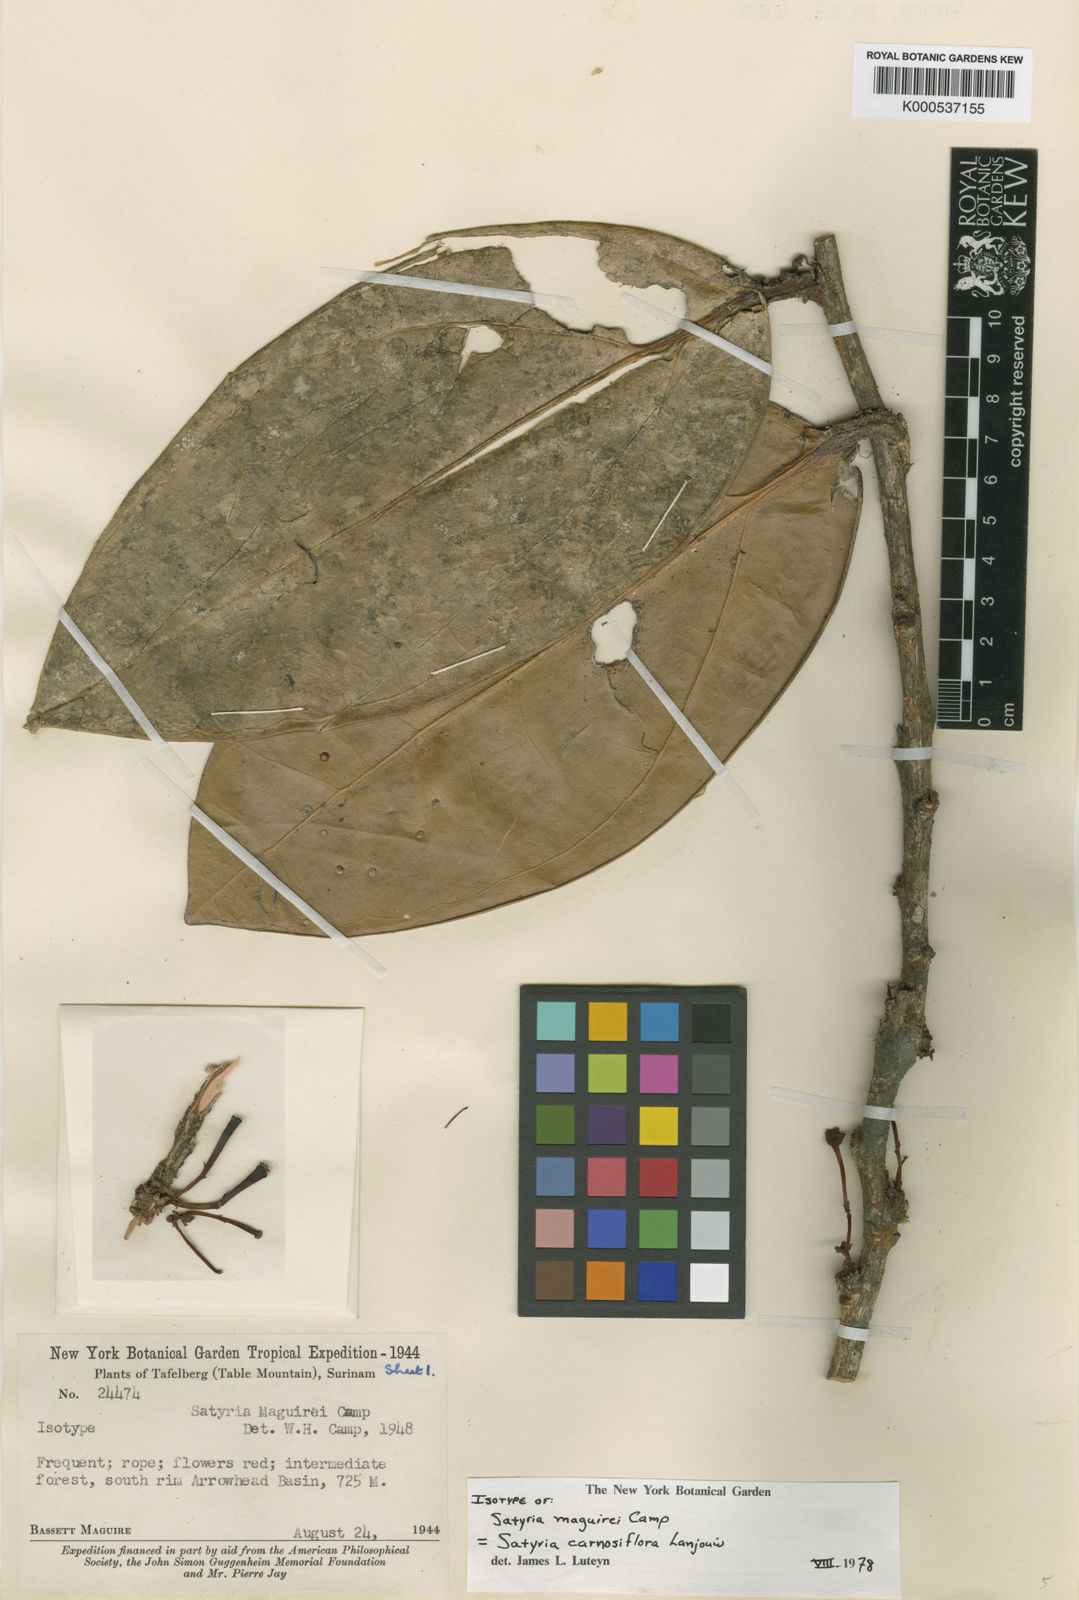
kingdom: Plantae
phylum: Tracheophyta
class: Magnoliopsida
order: Ericales
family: Ericaceae
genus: Satyria
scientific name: Satyria carnosiflora
